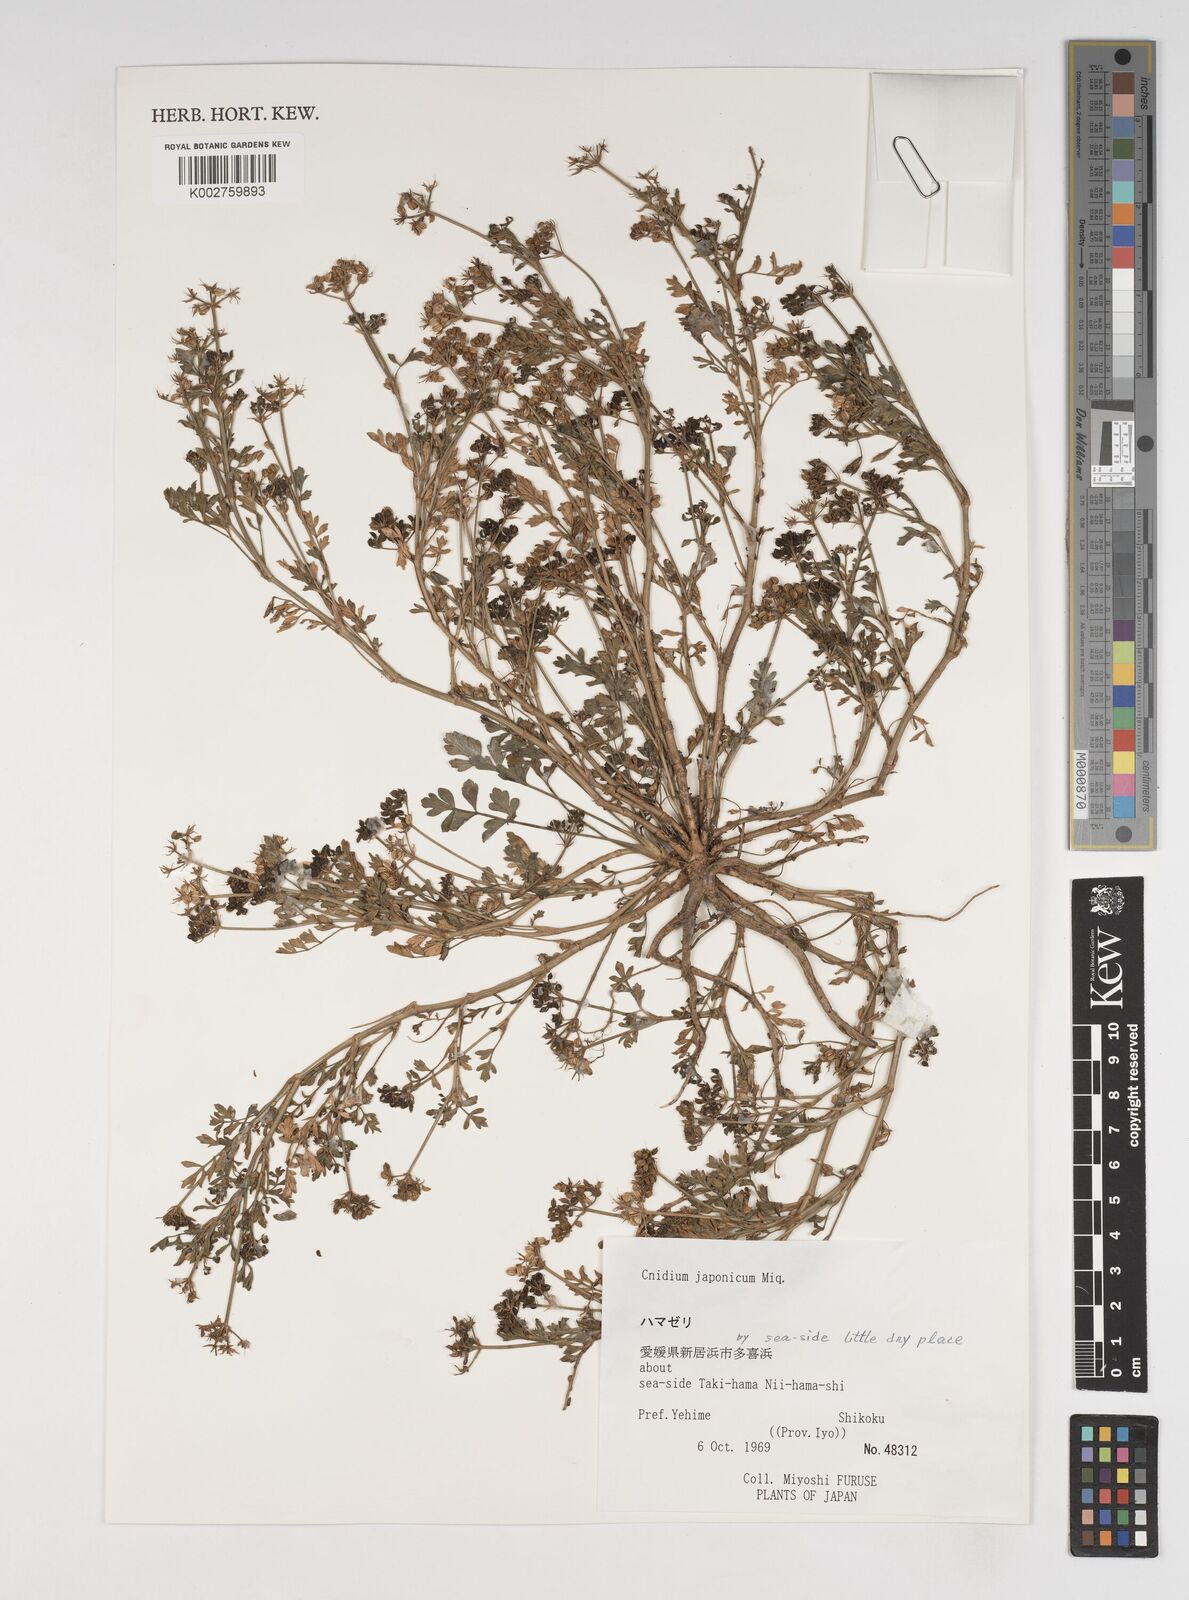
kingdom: Plantae
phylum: Tracheophyta
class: Magnoliopsida
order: Apiales
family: Apiaceae
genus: Cnidium
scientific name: Cnidium japonicum
